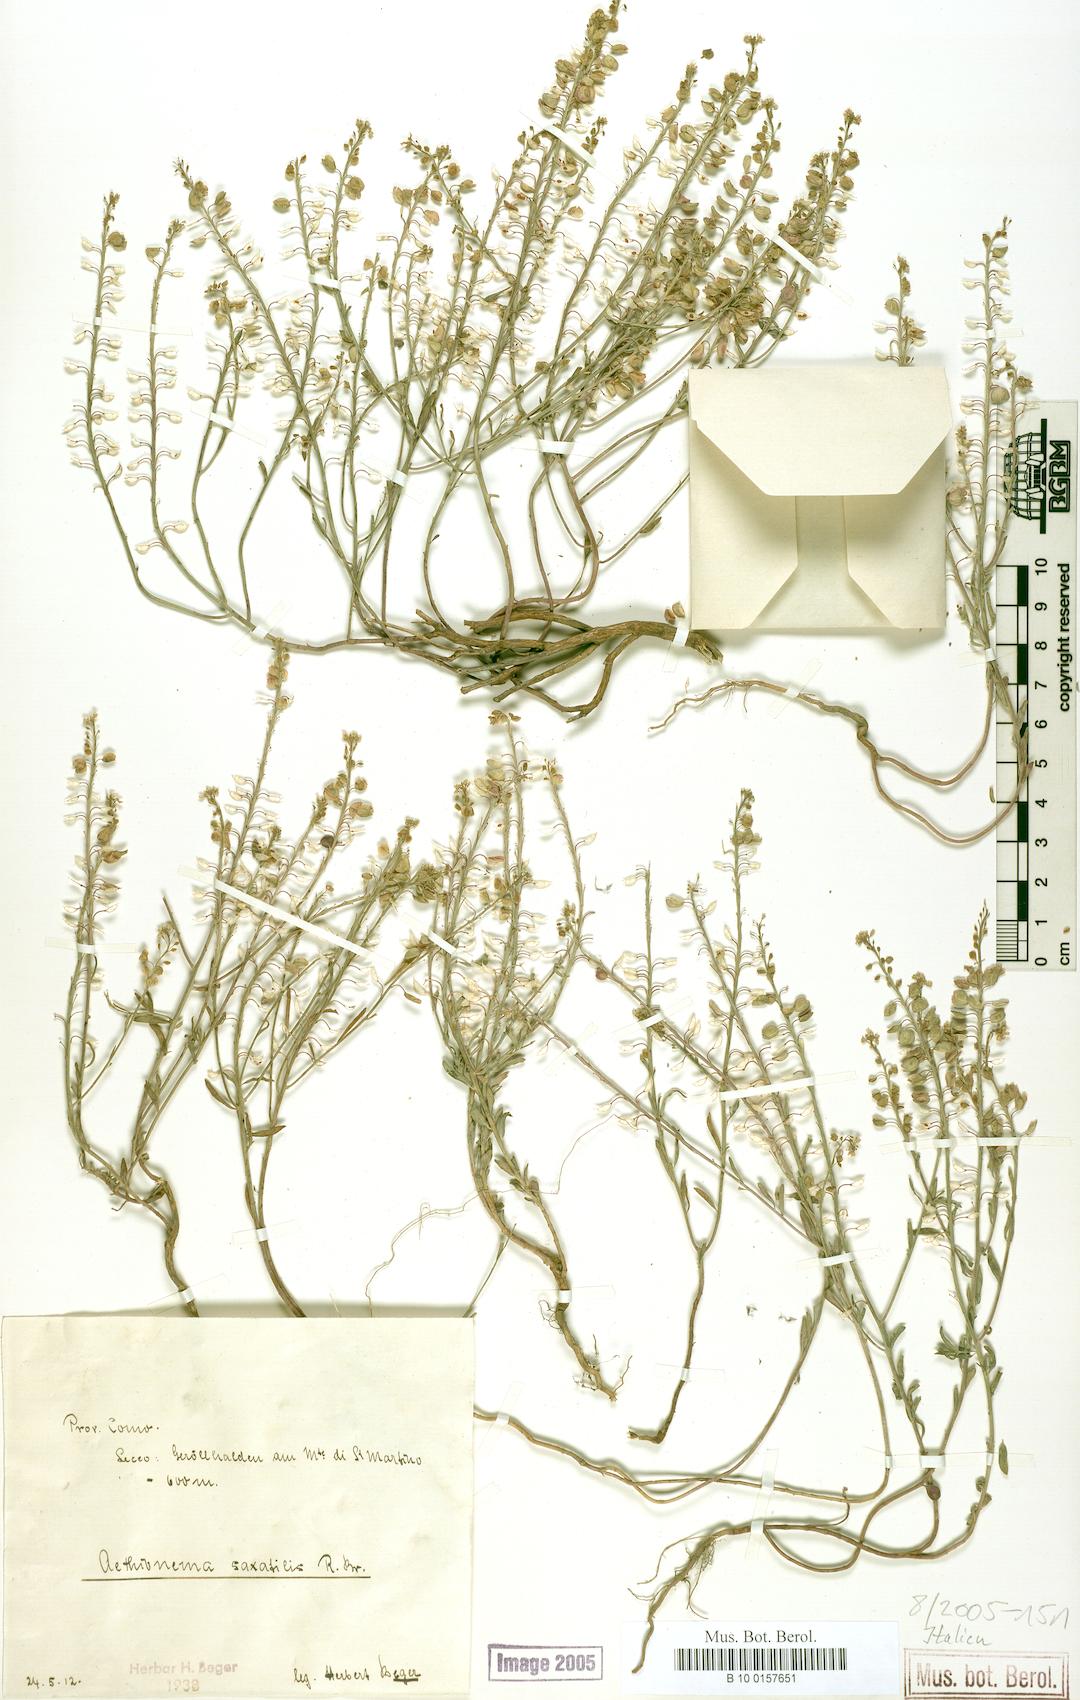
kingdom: Plantae
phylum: Tracheophyta
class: Magnoliopsida
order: Brassicales
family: Brassicaceae
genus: Aethionema
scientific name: Aethionema saxatile
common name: Burnt candytuft
